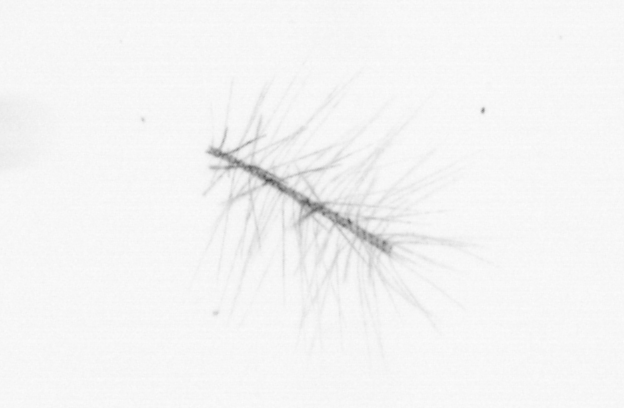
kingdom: Chromista
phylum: Ochrophyta
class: Bacillariophyceae
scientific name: Bacillariophyceae
